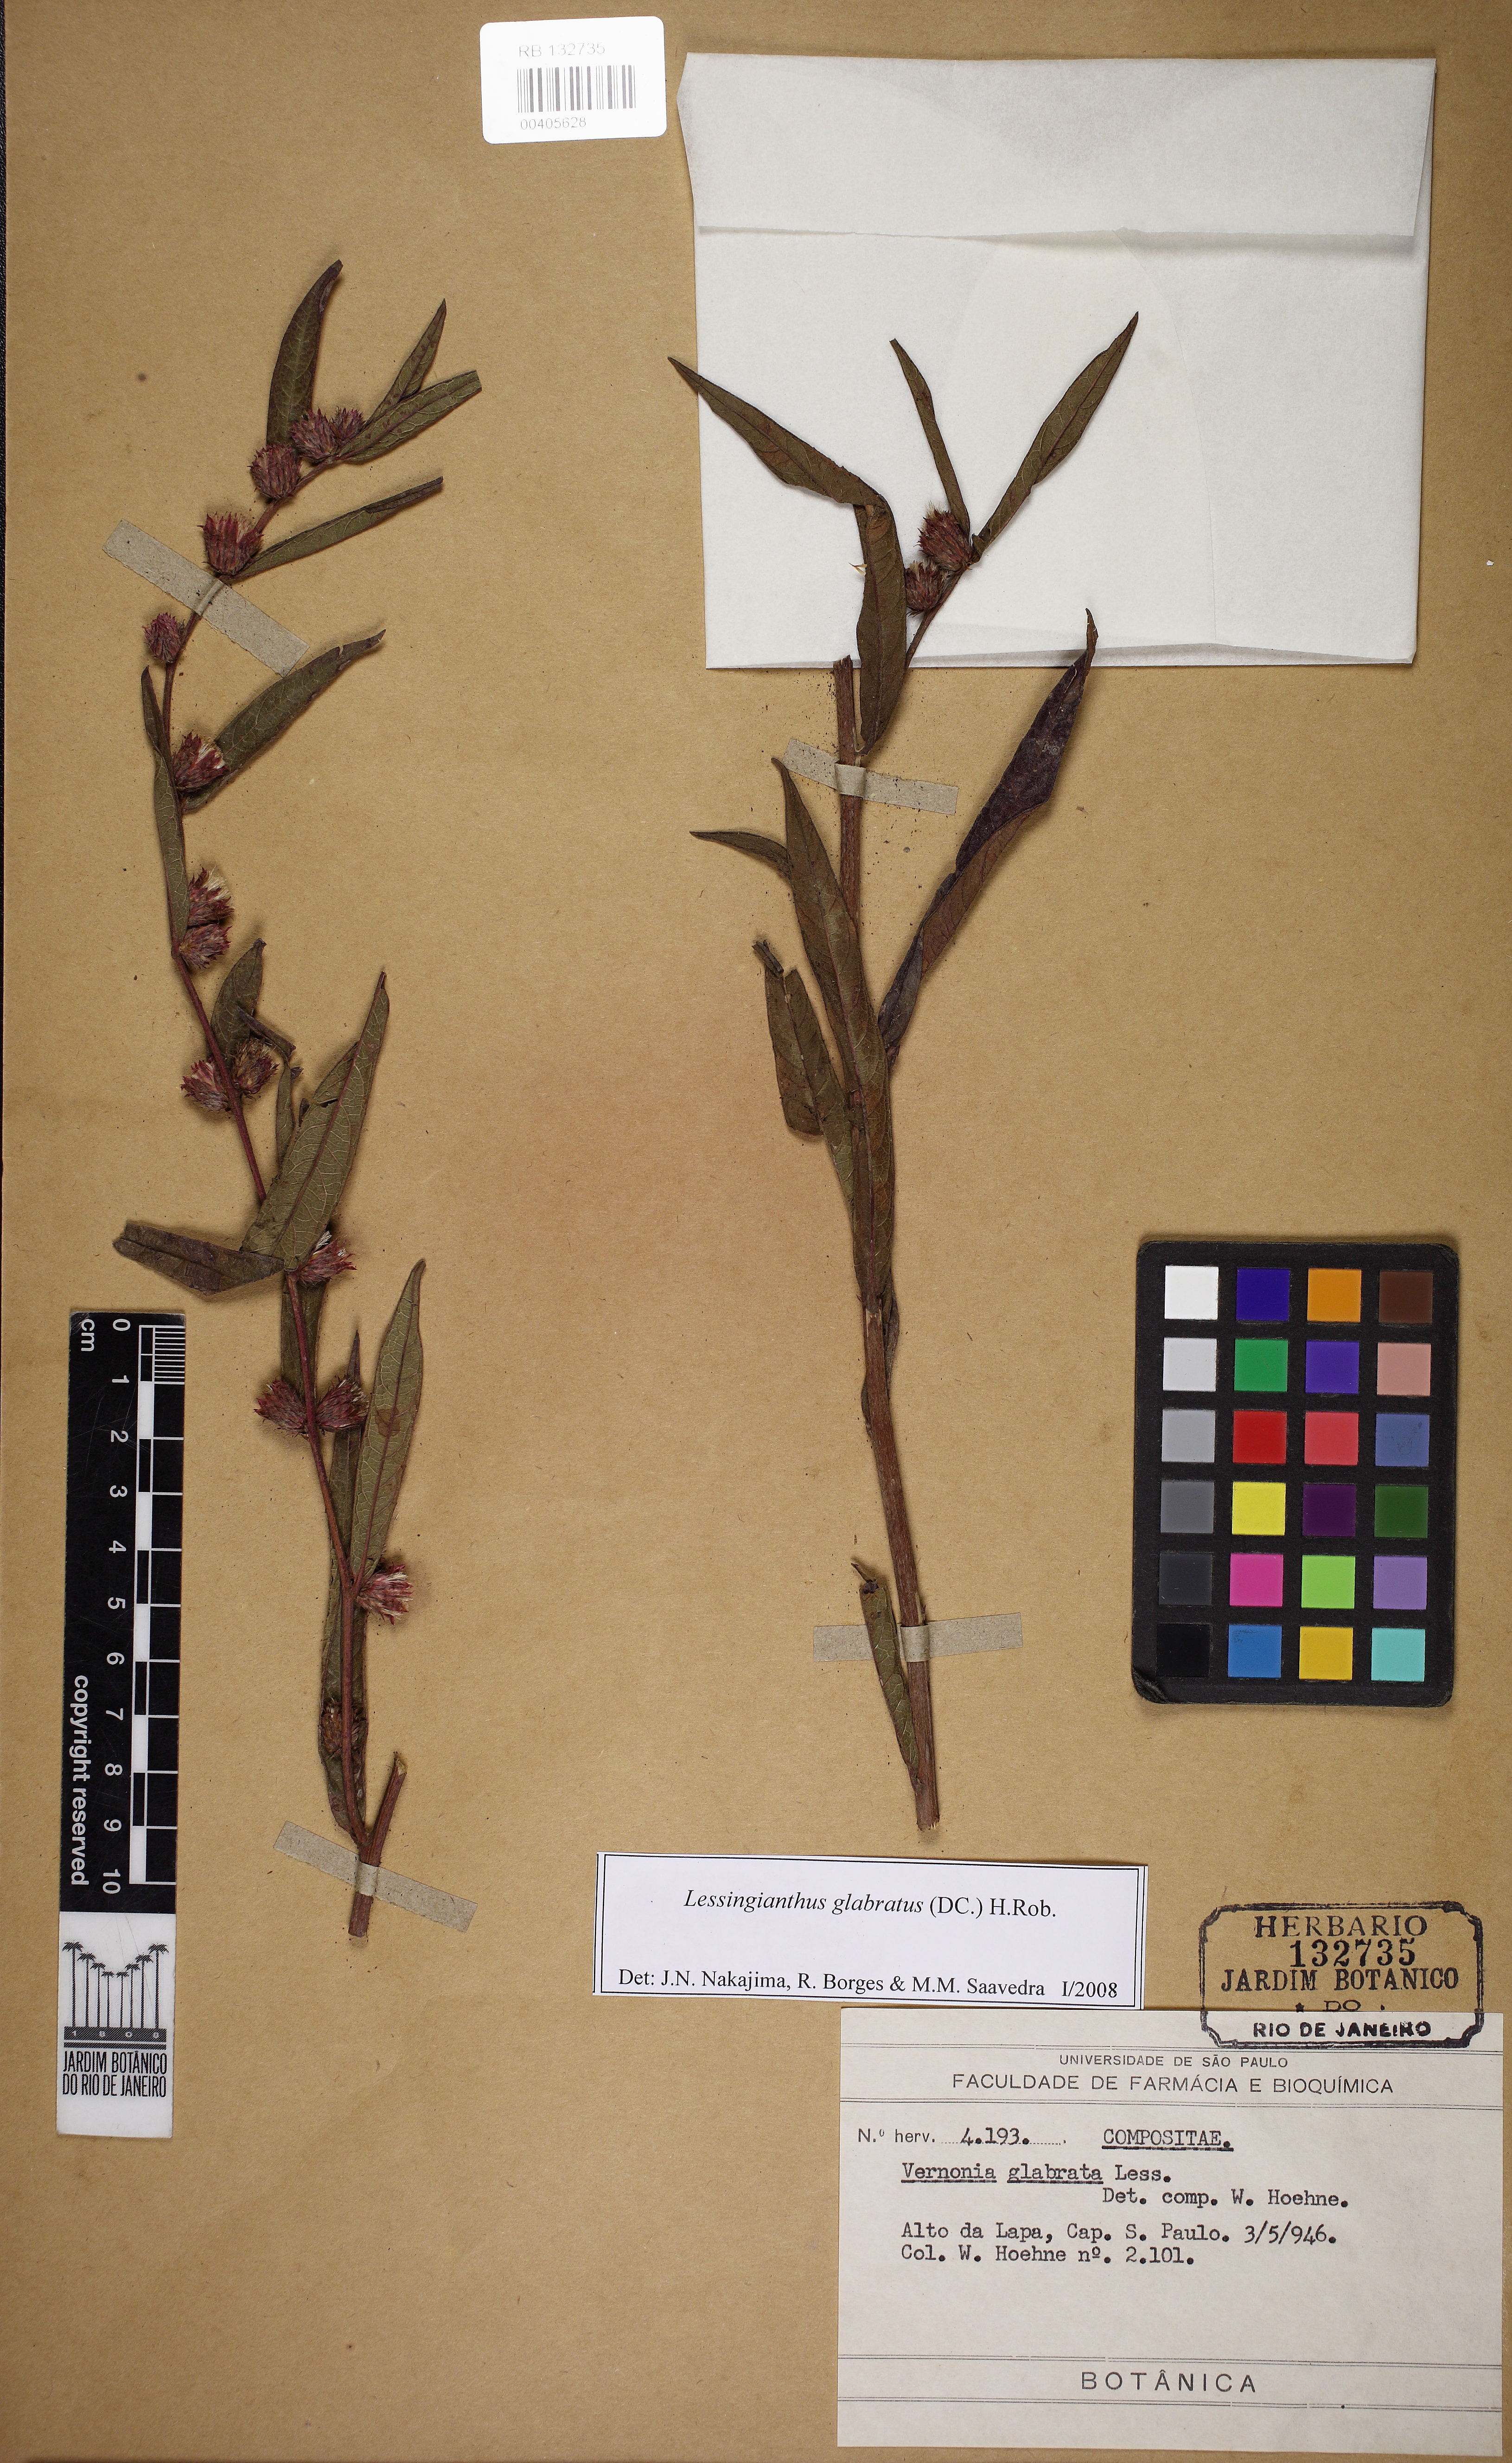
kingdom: Plantae
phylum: Tracheophyta
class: Magnoliopsida
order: Asterales
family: Asteraceae
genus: Lessingianthus
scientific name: Lessingianthus glabratus
